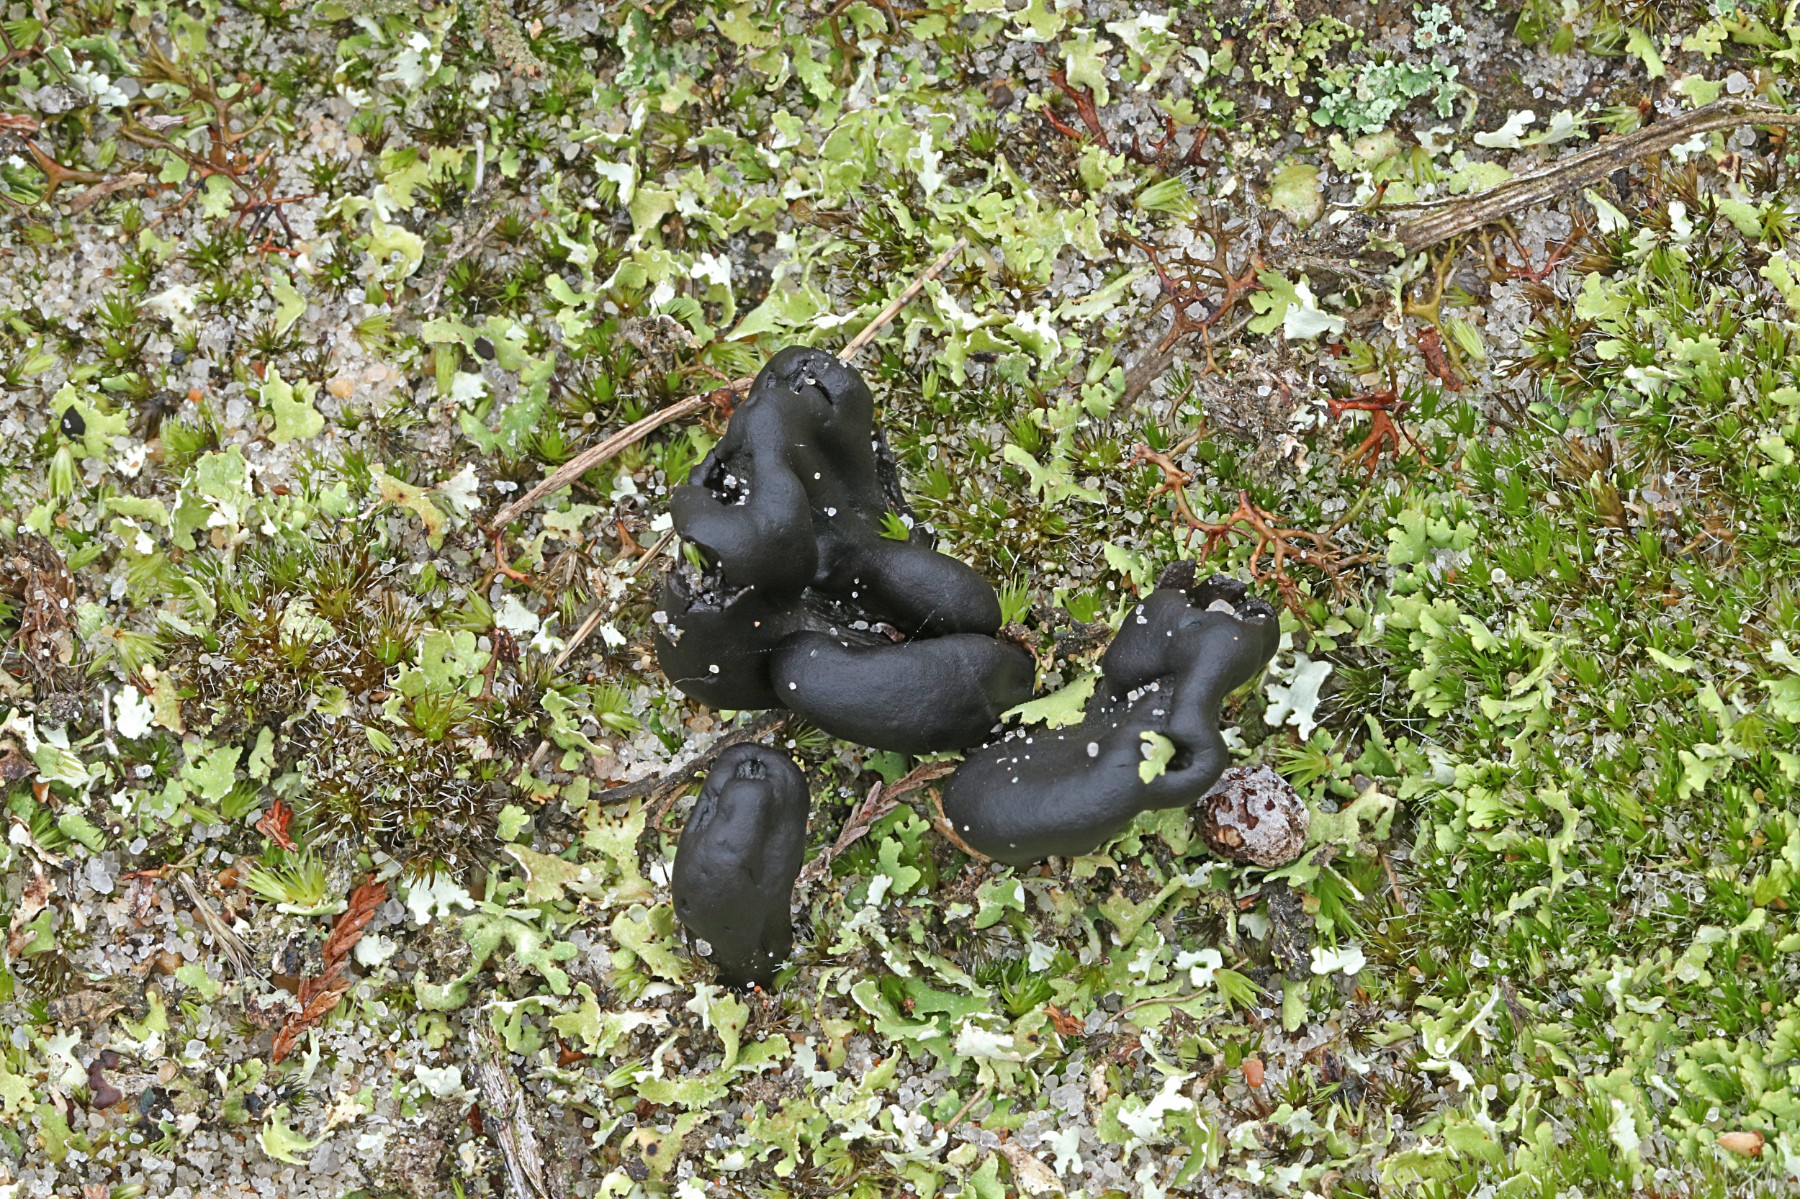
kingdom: Fungi
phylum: Ascomycota
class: Geoglossomycetes
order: Geoglossales
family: Geoglossaceae
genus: Sabuloglossum
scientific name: Sabuloglossum arenarium
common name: klit-jordtunge
